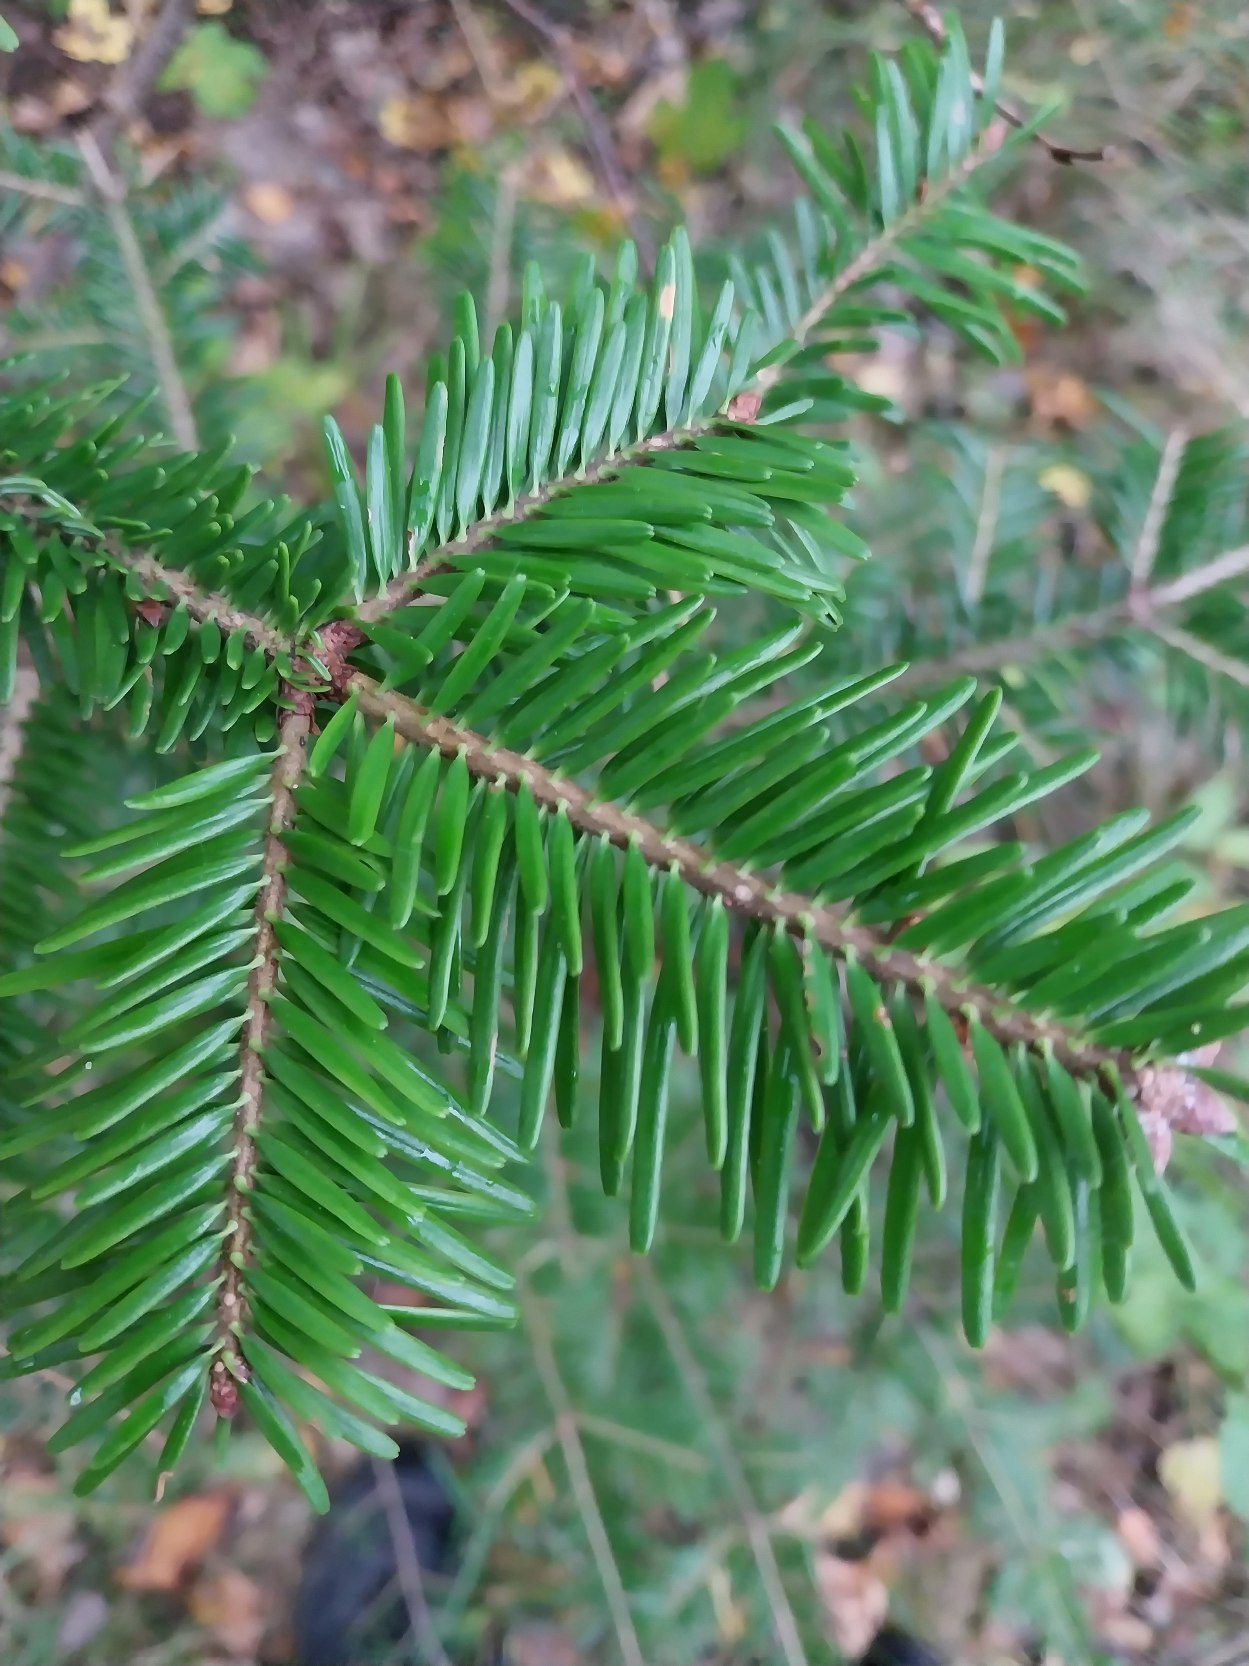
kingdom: Plantae
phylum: Tracheophyta
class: Pinopsida
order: Pinales
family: Pinaceae
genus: Abies
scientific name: Abies alba
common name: Almindelig ædelgran
